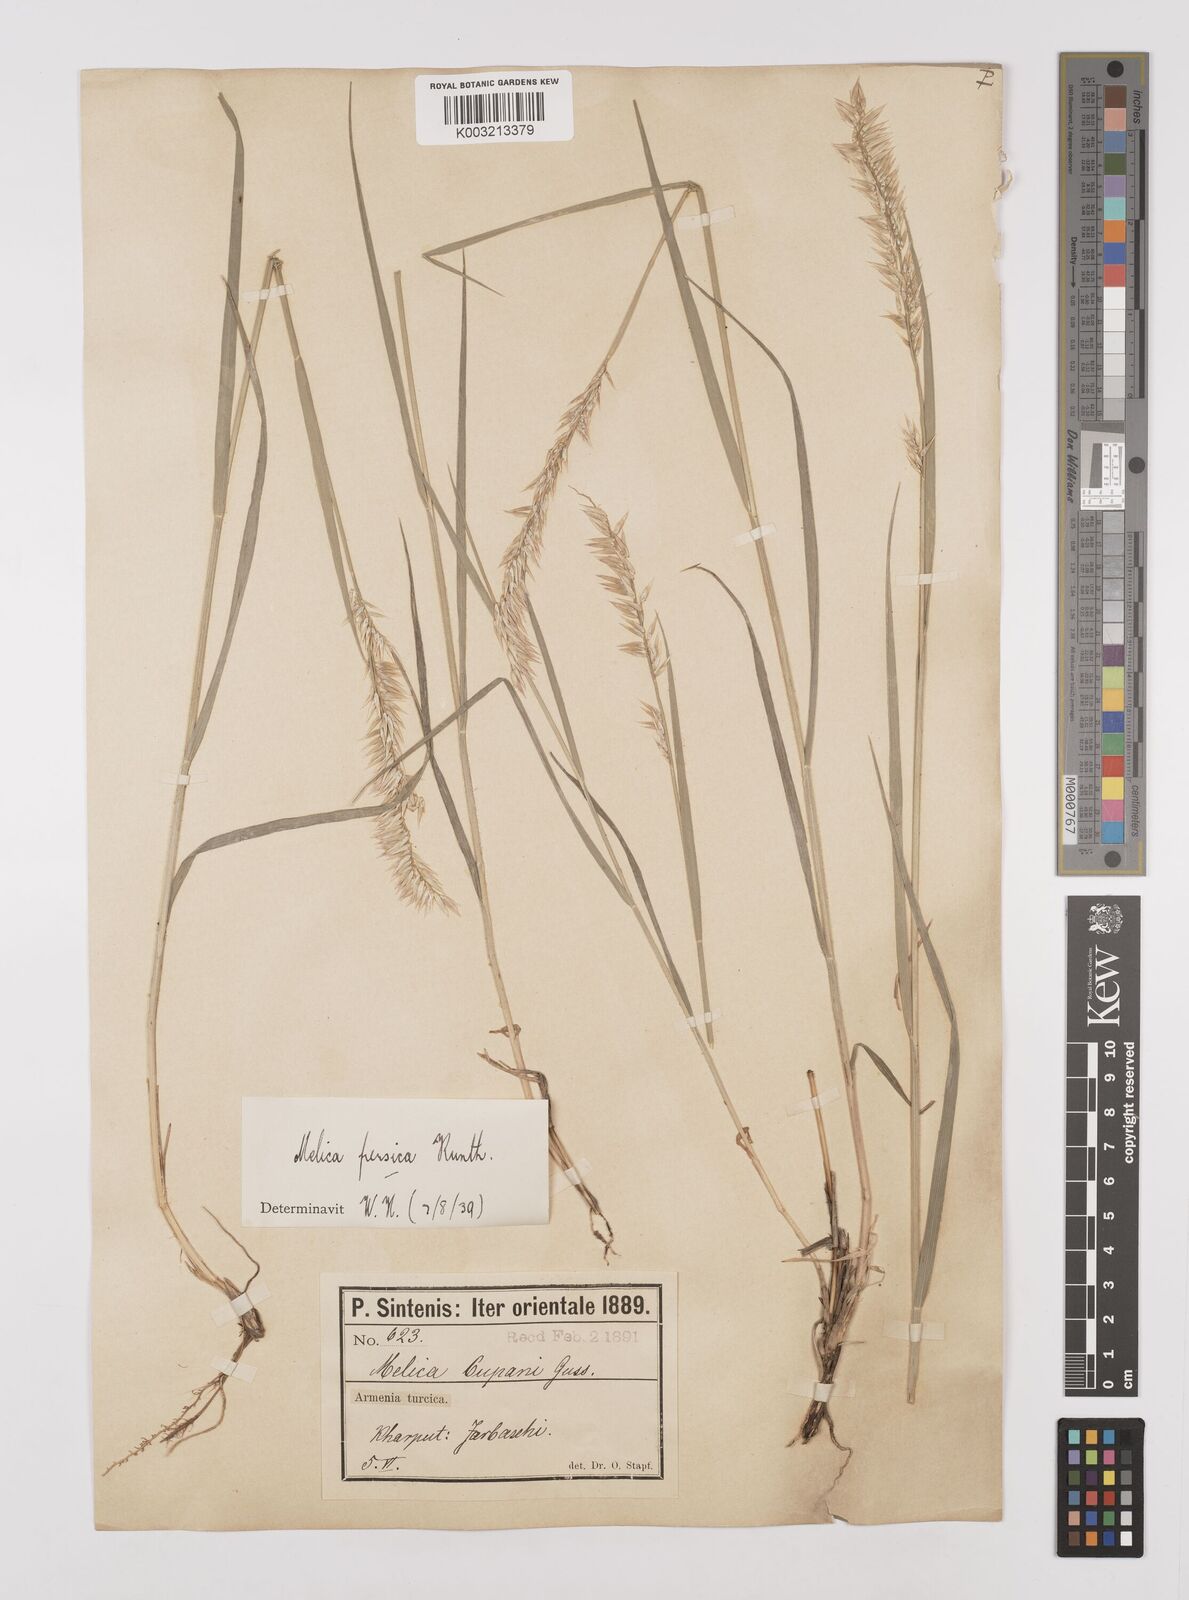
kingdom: Plantae
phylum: Tracheophyta
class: Liliopsida
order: Poales
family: Poaceae
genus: Melica
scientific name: Melica persica
